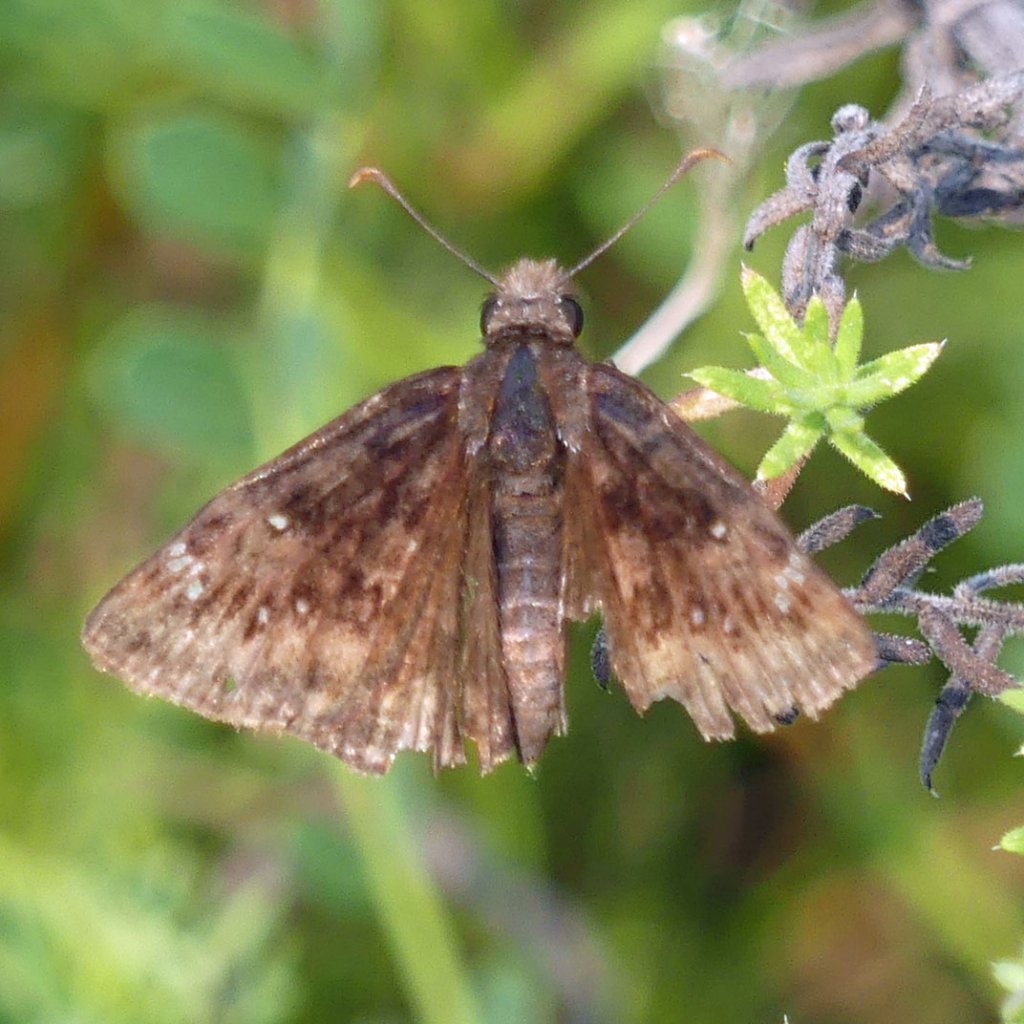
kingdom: Animalia
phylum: Arthropoda
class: Insecta
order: Lepidoptera
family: Hesperiidae
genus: Gesta
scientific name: Gesta
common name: Wild Indigo Duskywing
